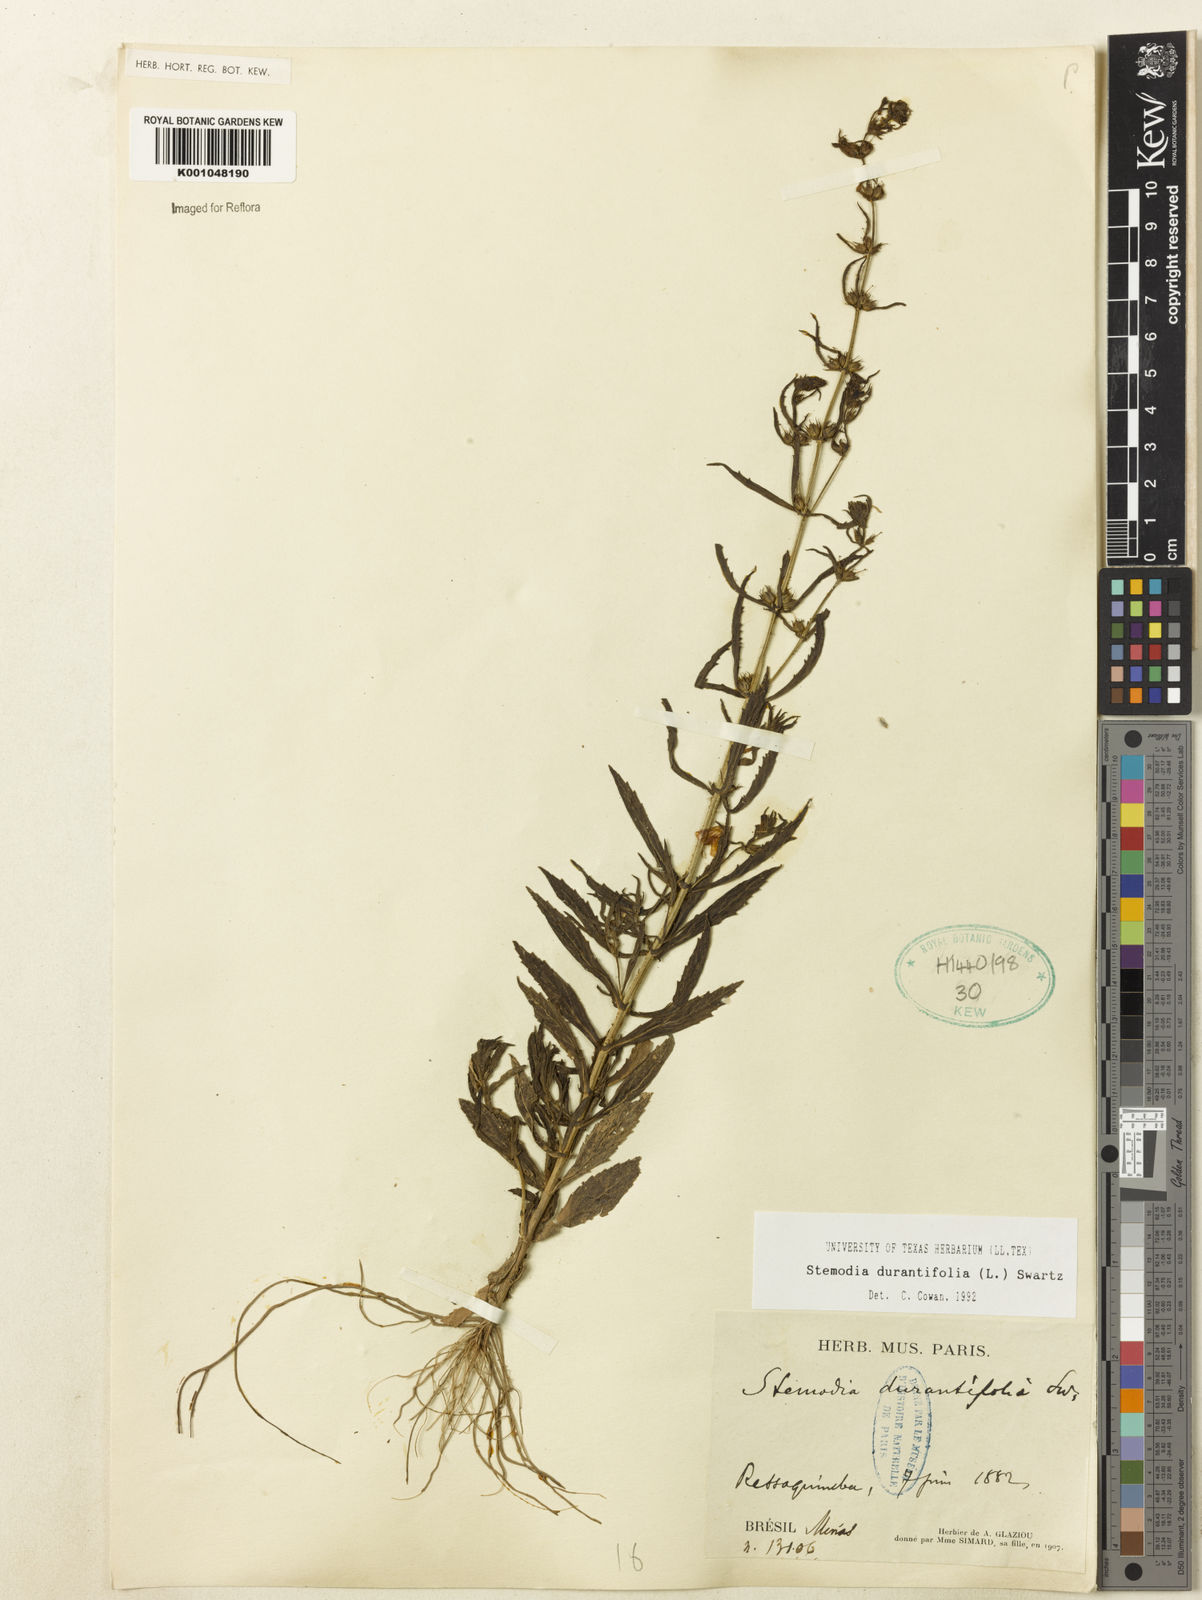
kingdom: Plantae
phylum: Tracheophyta
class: Magnoliopsida
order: Lamiales
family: Plantaginaceae
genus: Stemodia
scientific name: Stemodia durantifolia
